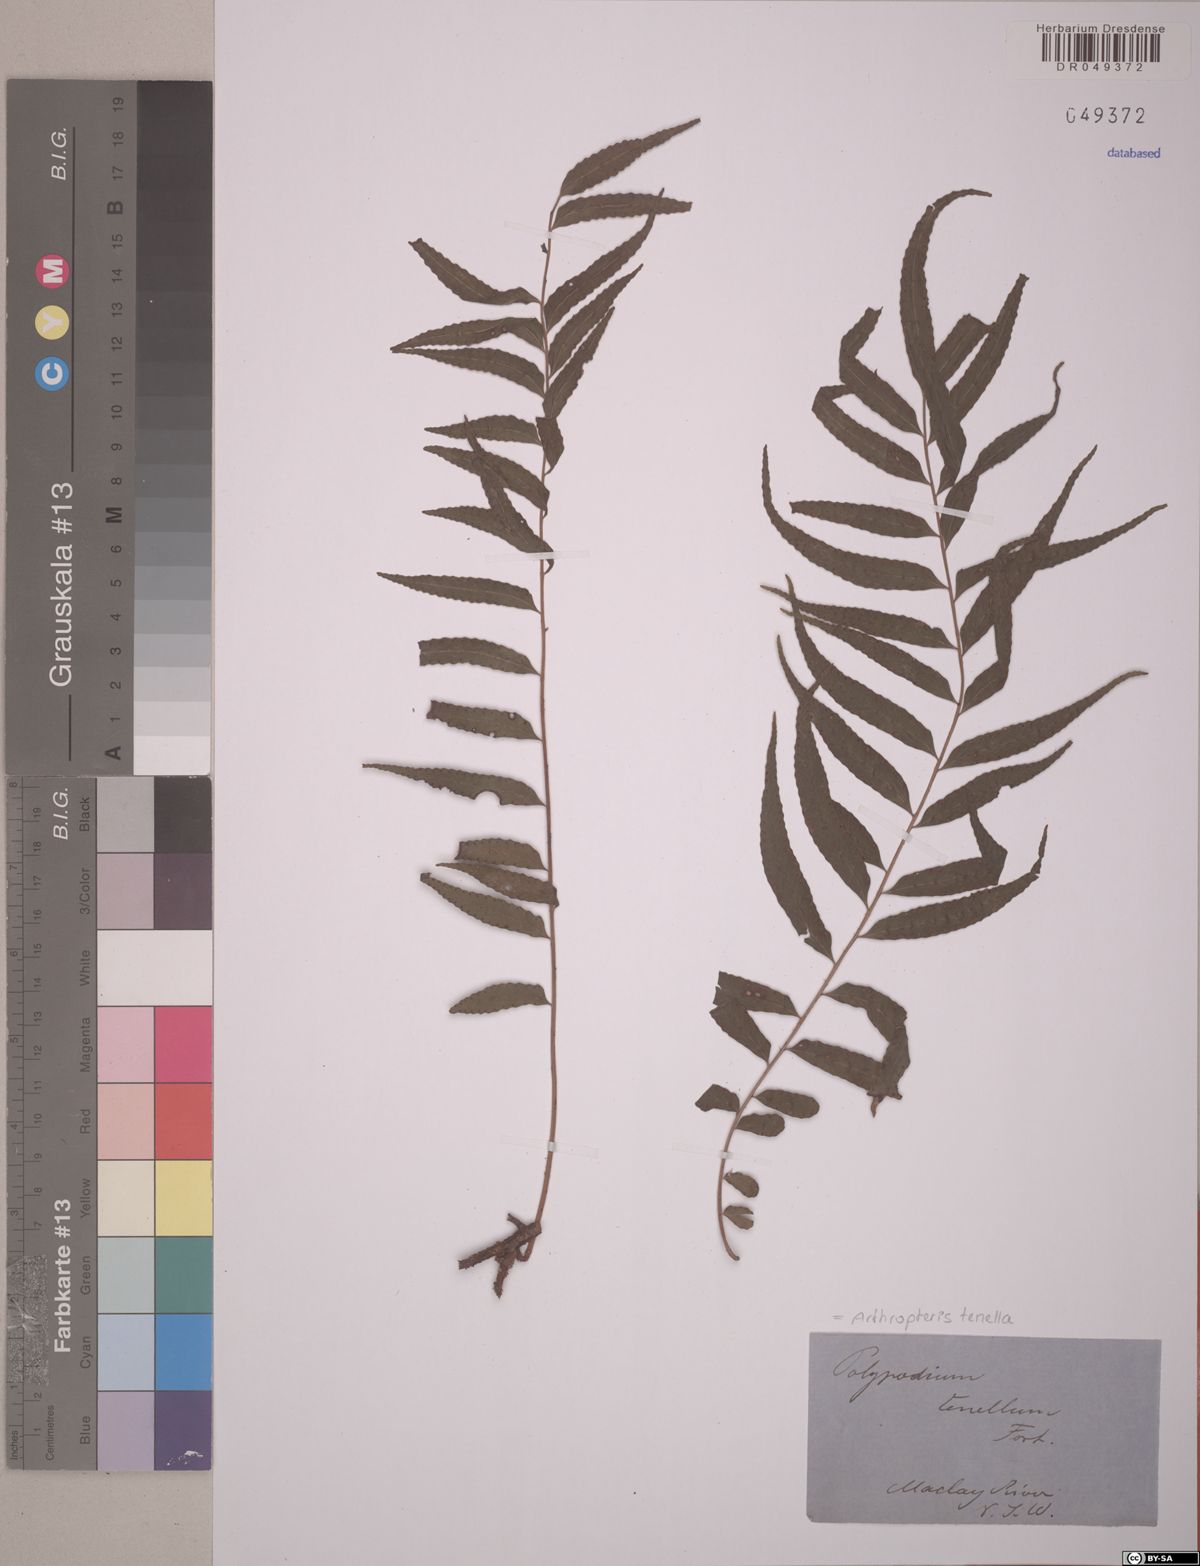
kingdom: Plantae
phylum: Tracheophyta
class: Polypodiopsida
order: Polypodiales
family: Tectariaceae
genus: Arthropteris
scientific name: Arthropteris tenella
